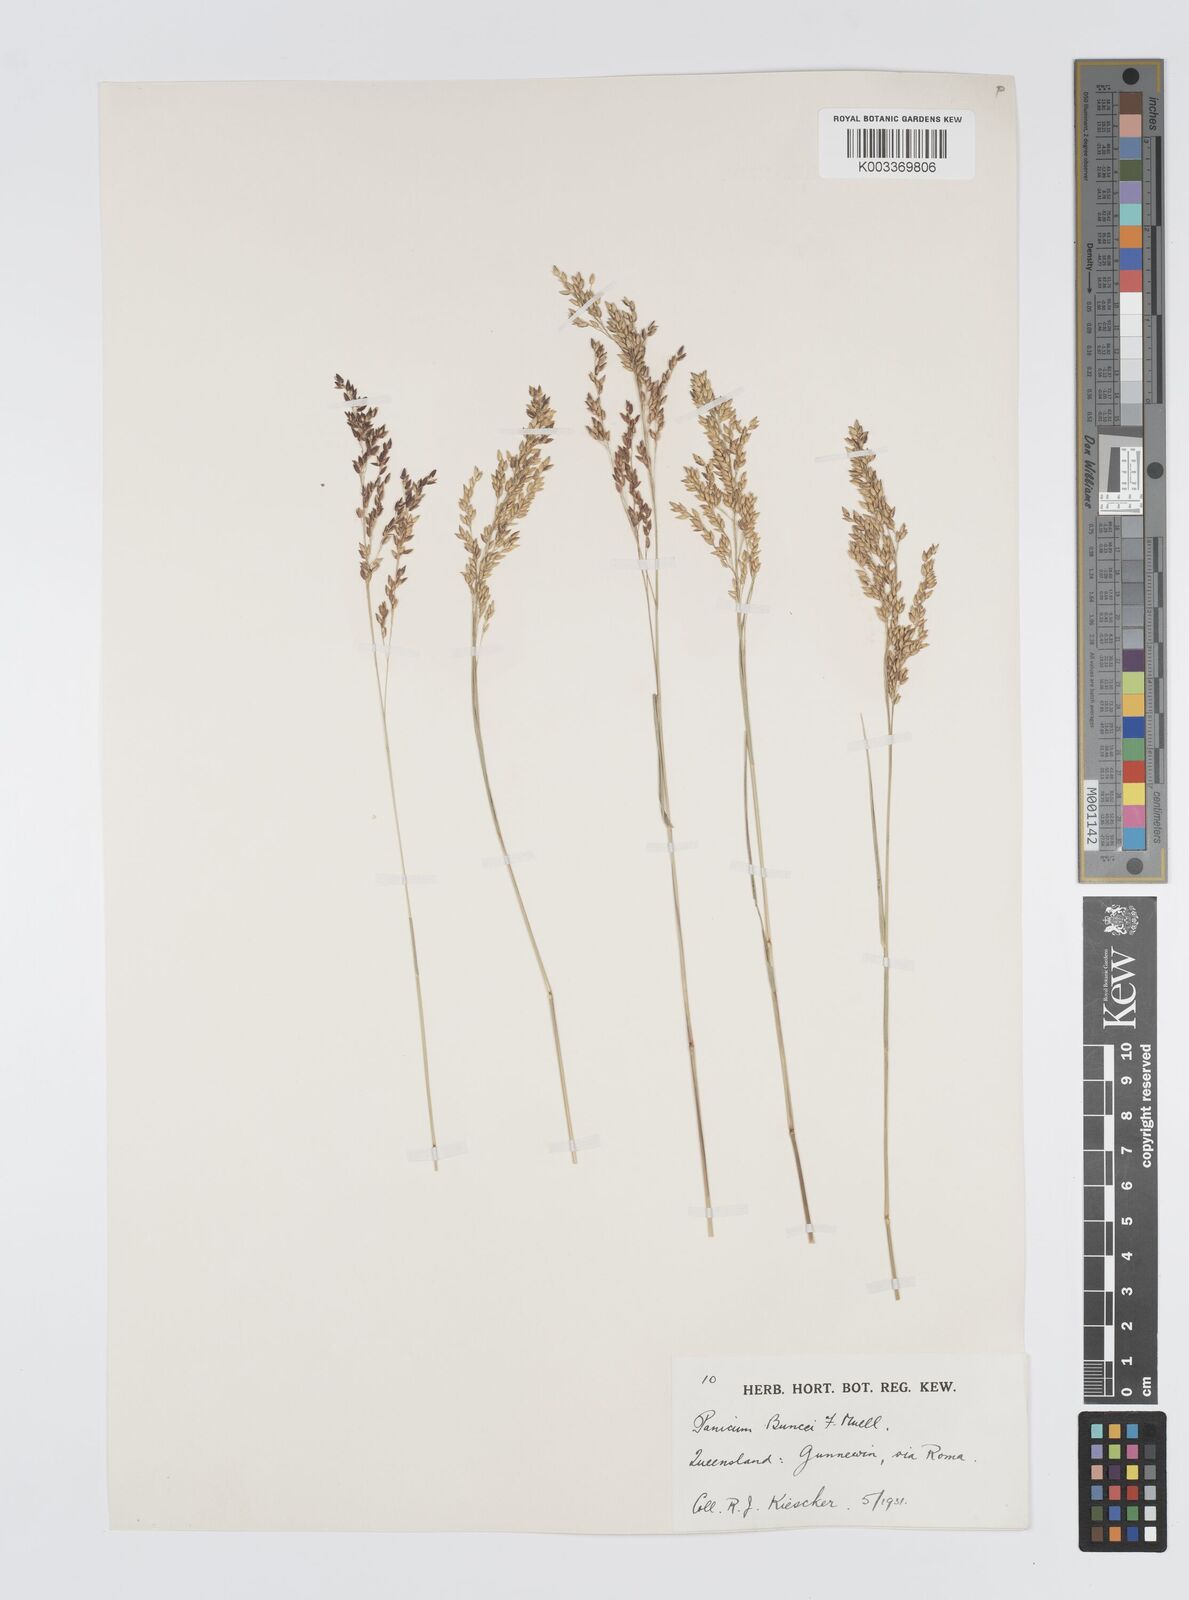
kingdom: Plantae
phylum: Tracheophyta
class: Liliopsida
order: Poales
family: Poaceae
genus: Panicum
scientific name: Panicum buncei
